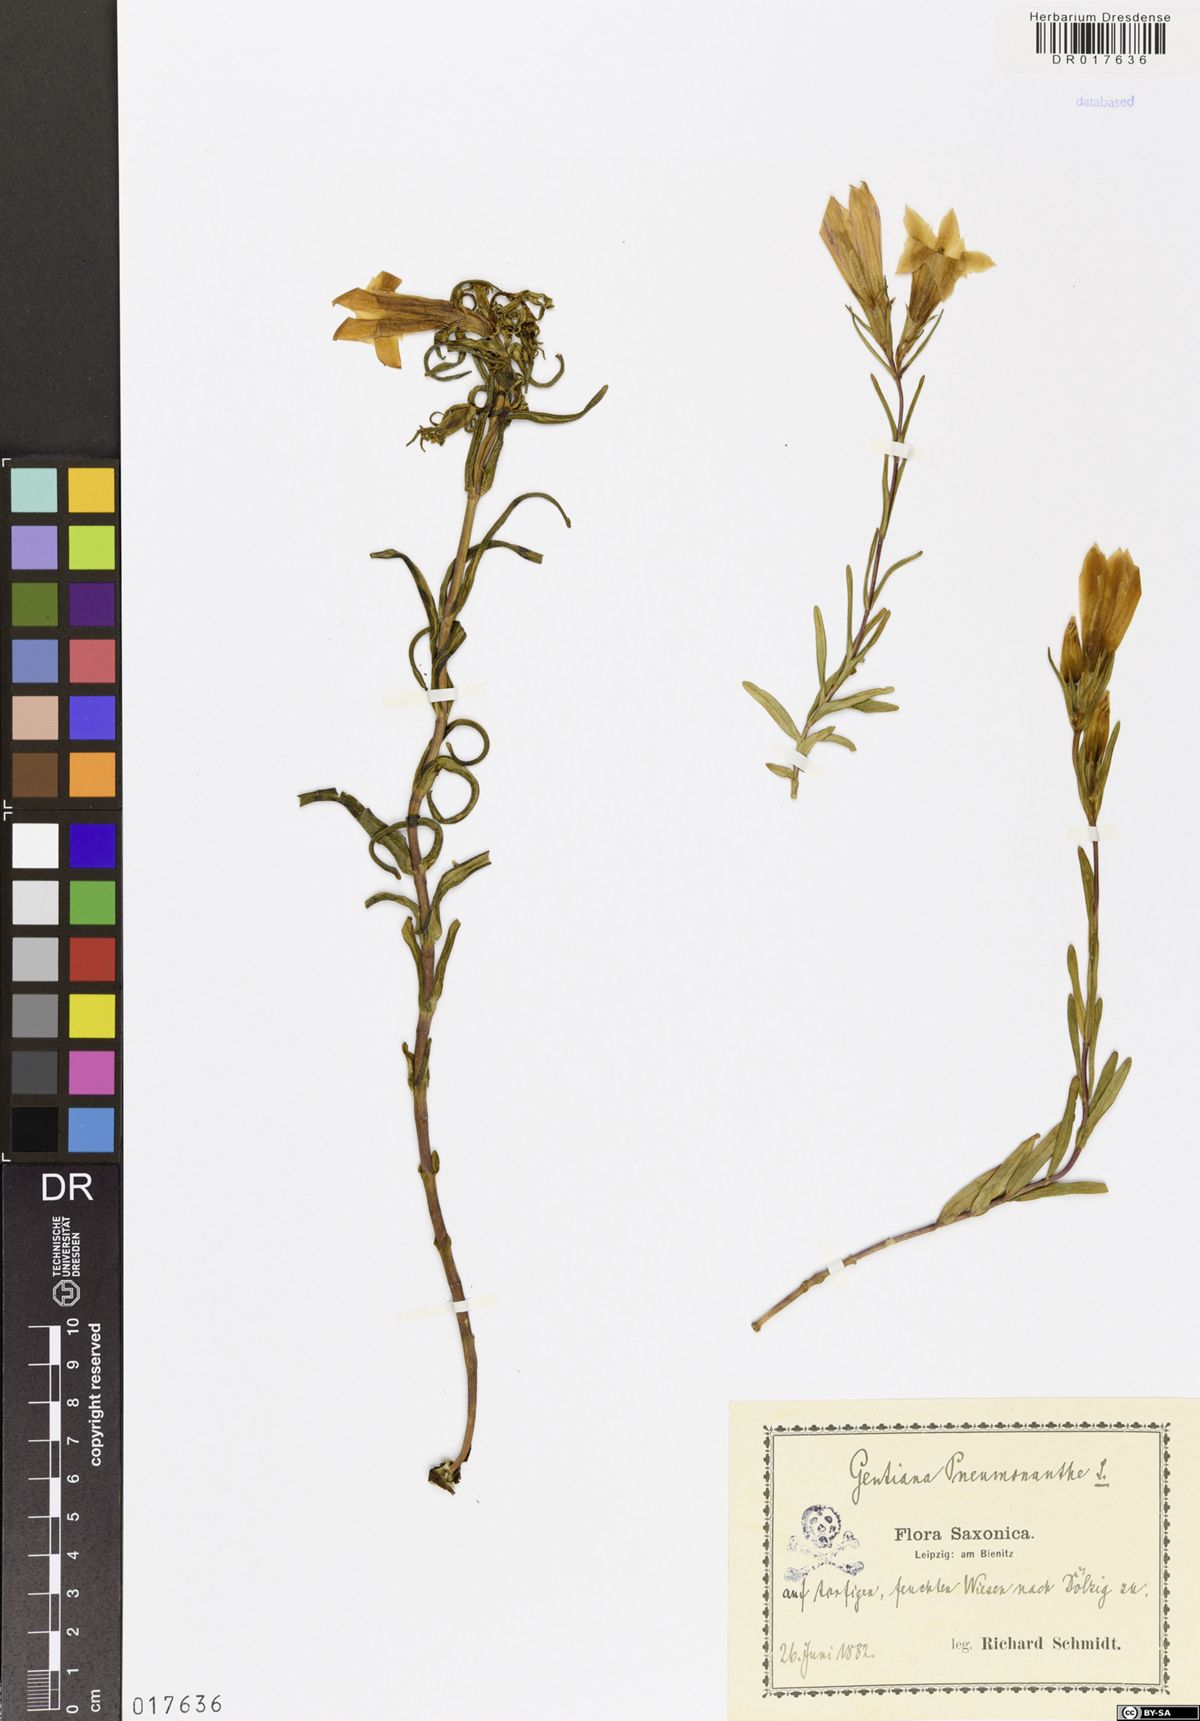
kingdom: Plantae
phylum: Tracheophyta
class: Magnoliopsida
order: Gentianales
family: Gentianaceae
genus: Gentiana
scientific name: Gentiana pneumonanthe
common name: Marsh gentian
